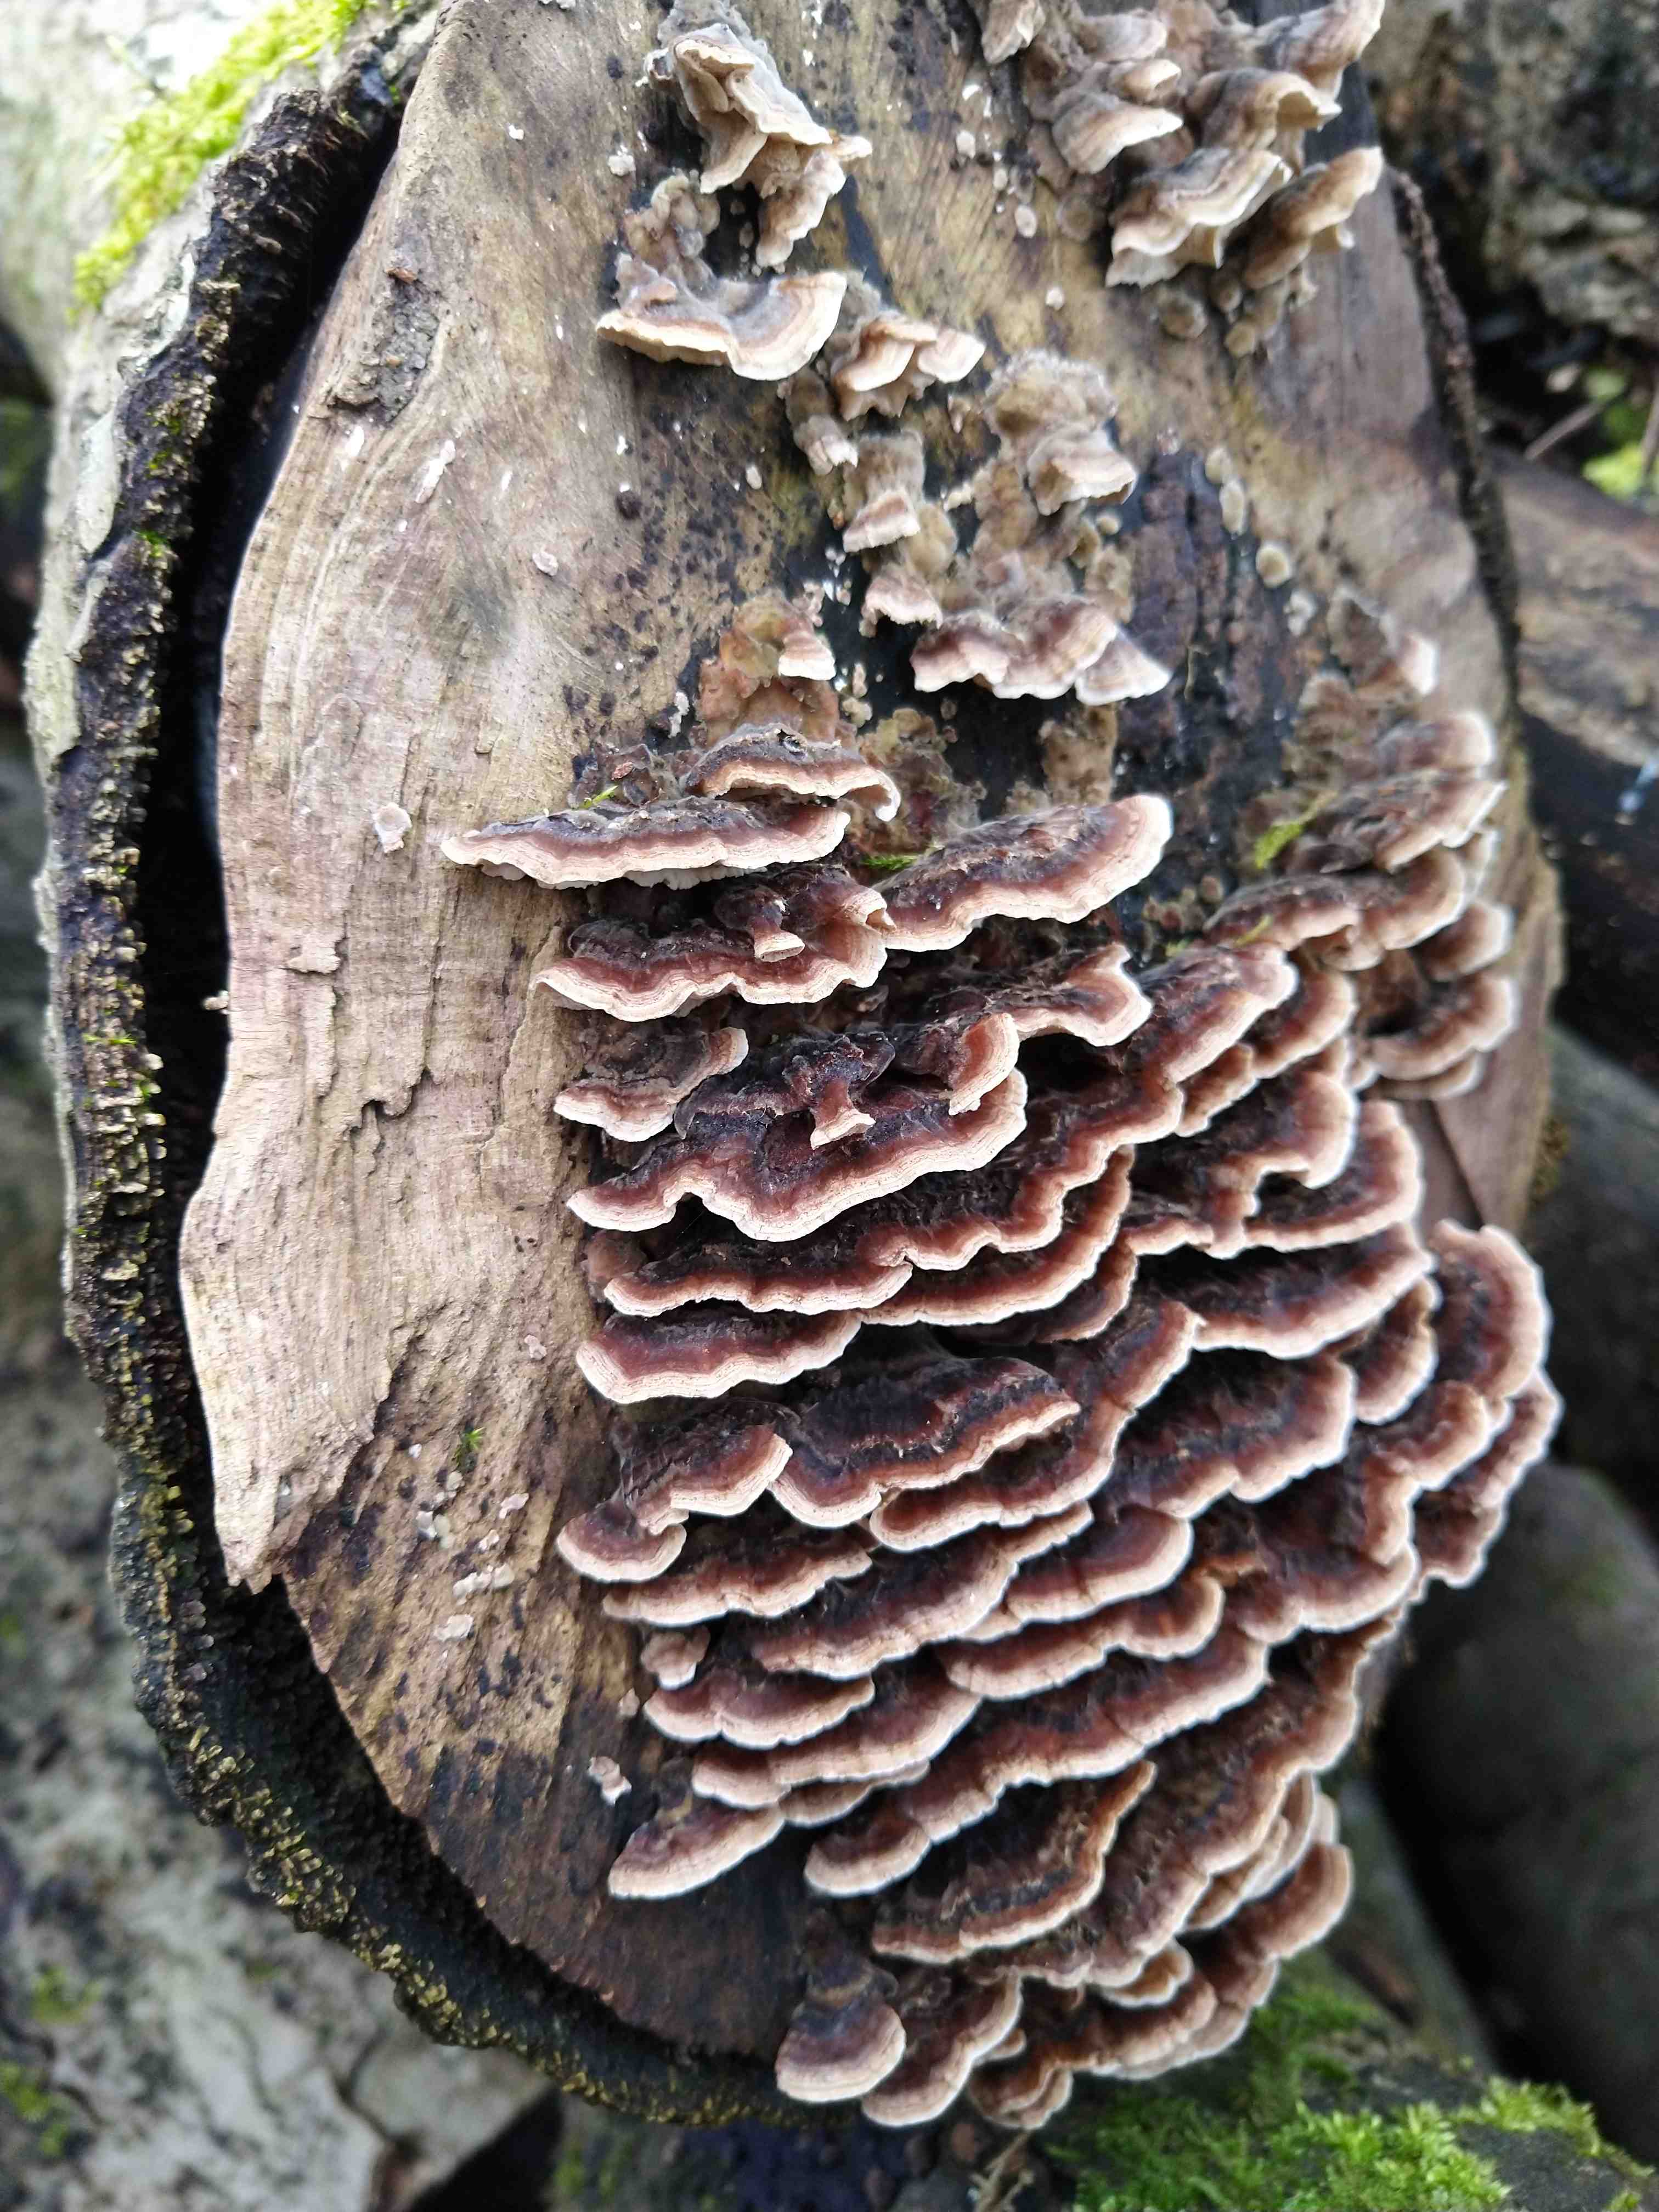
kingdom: Fungi
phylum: Basidiomycota
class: Agaricomycetes
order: Polyporales
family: Polyporaceae
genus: Trametes
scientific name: Trametes versicolor
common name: broget læderporesvamp
